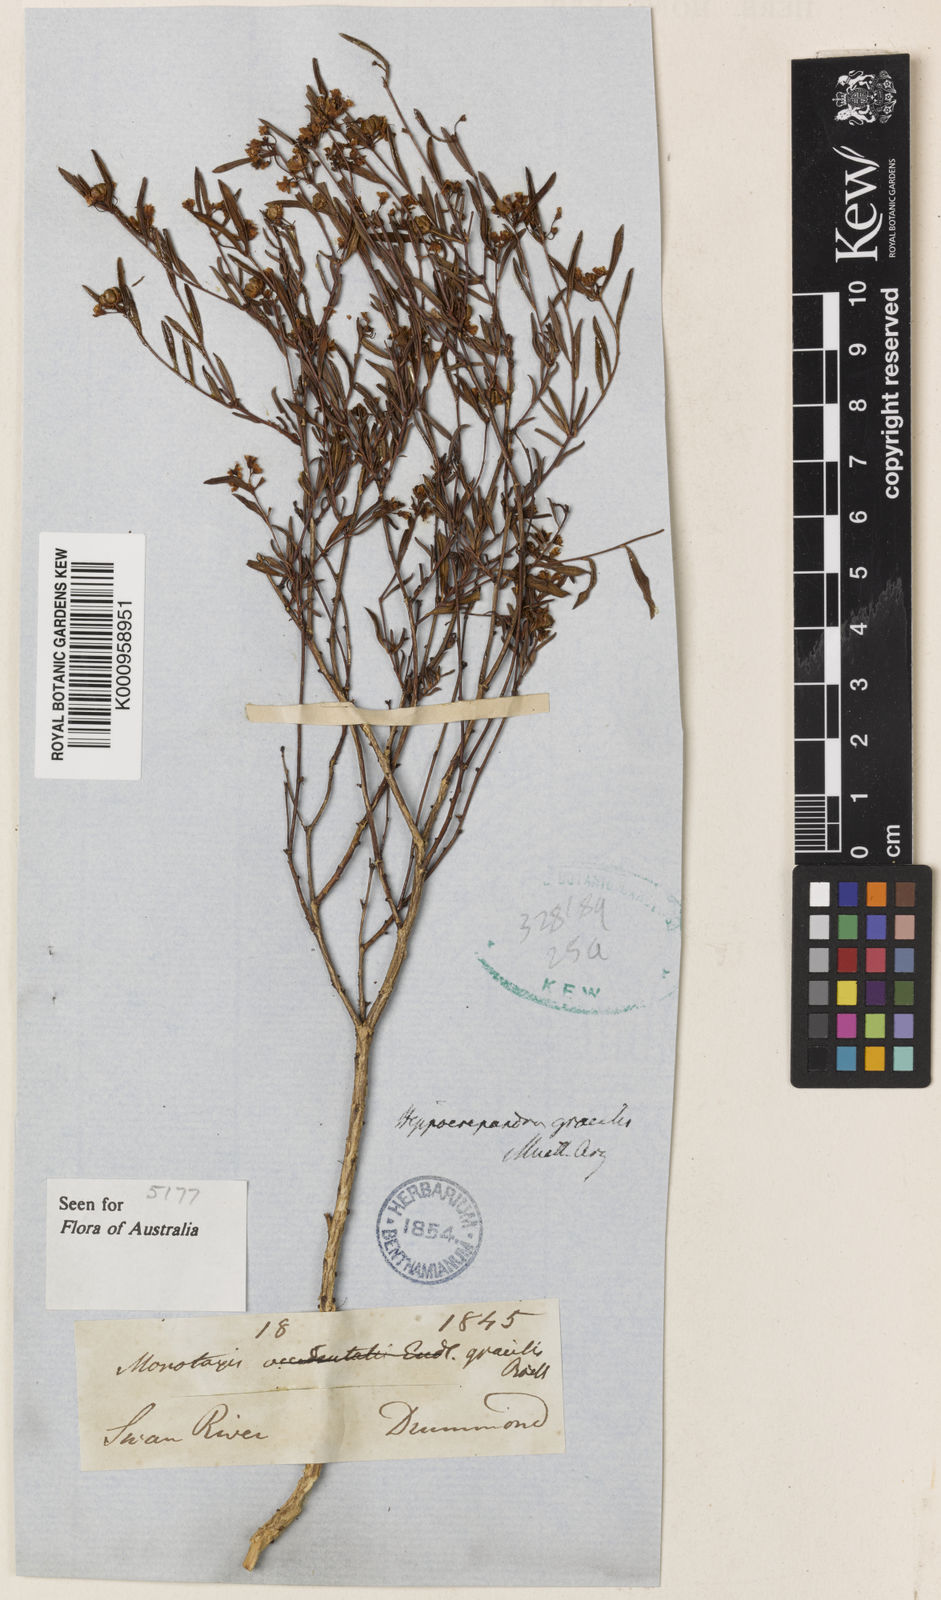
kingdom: Plantae
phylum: Tracheophyta
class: Magnoliopsida
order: Malpighiales
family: Euphorbiaceae
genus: Monotaxis
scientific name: Monotaxis
